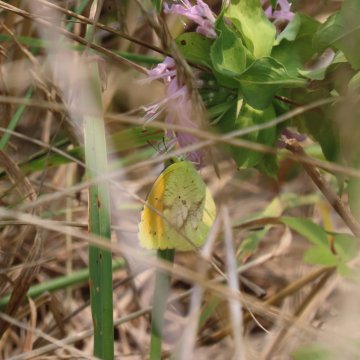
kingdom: Animalia
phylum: Arthropoda
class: Insecta
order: Lepidoptera
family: Pieridae
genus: Abaeis
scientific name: Abaeis nicippe
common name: Sleepy Orange
